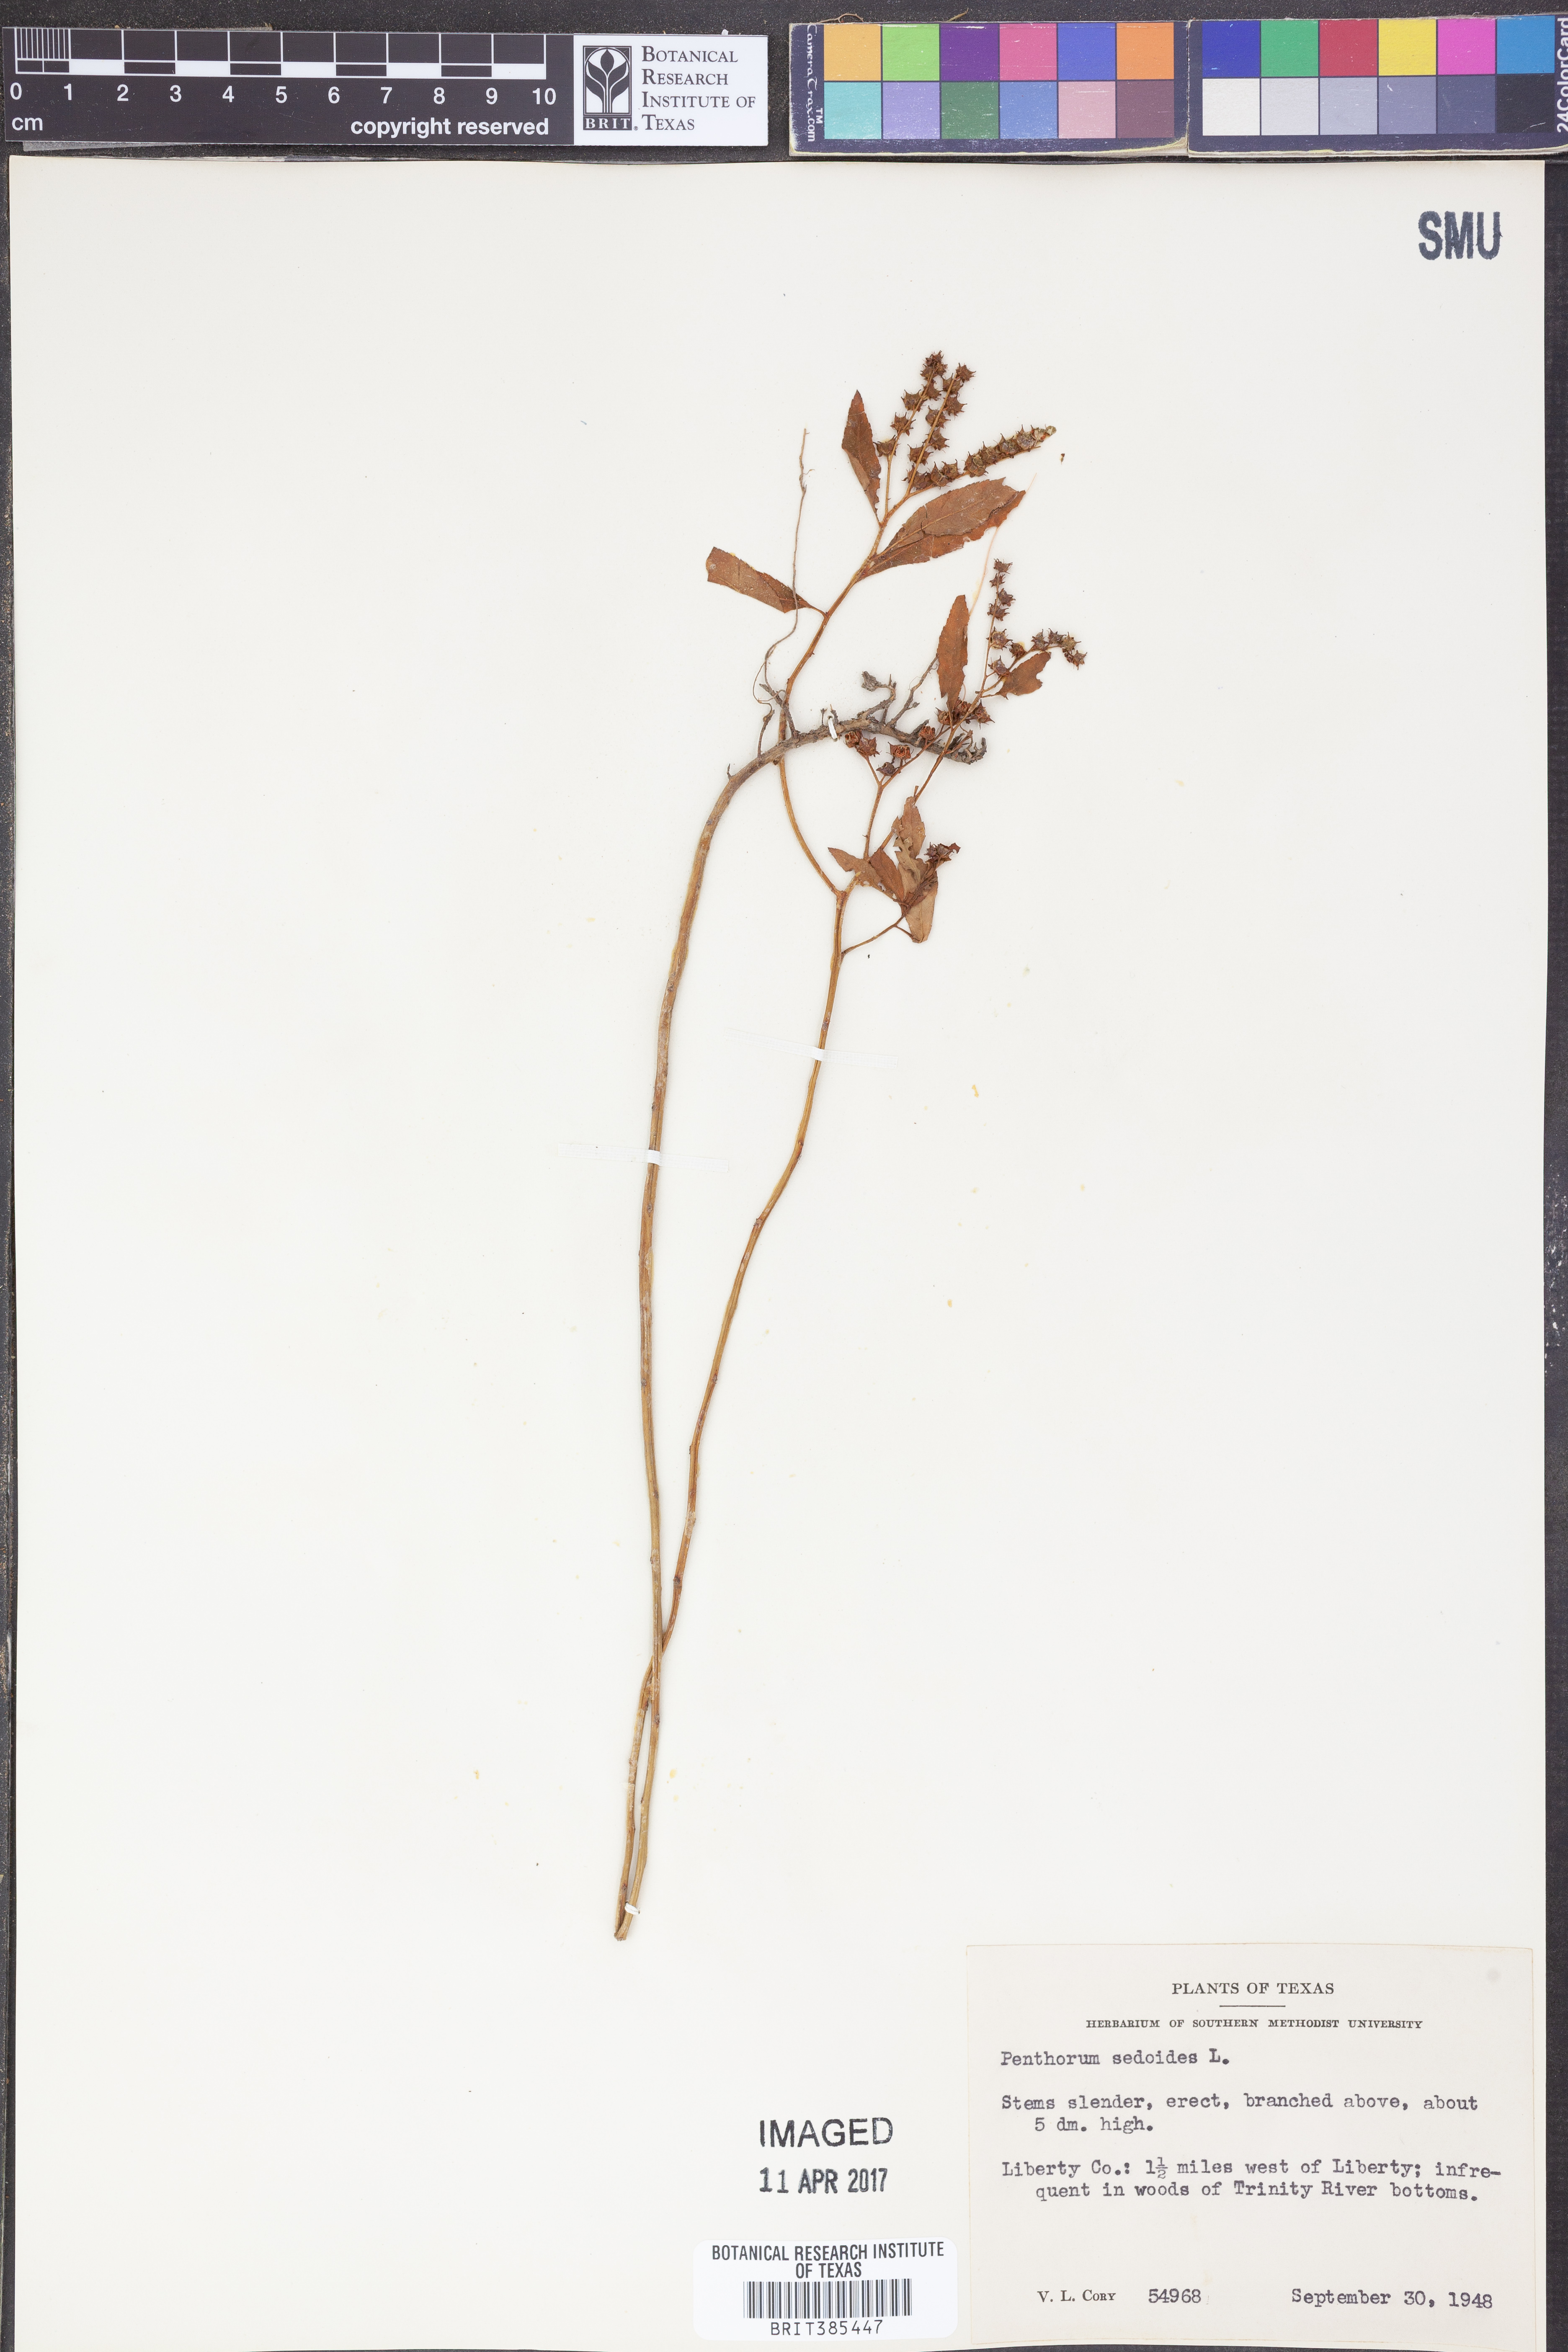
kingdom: Plantae
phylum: Tracheophyta
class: Magnoliopsida
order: Saxifragales
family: Penthoraceae
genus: Penthorum
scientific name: Penthorum sedoides
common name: Ditch stonecrop
